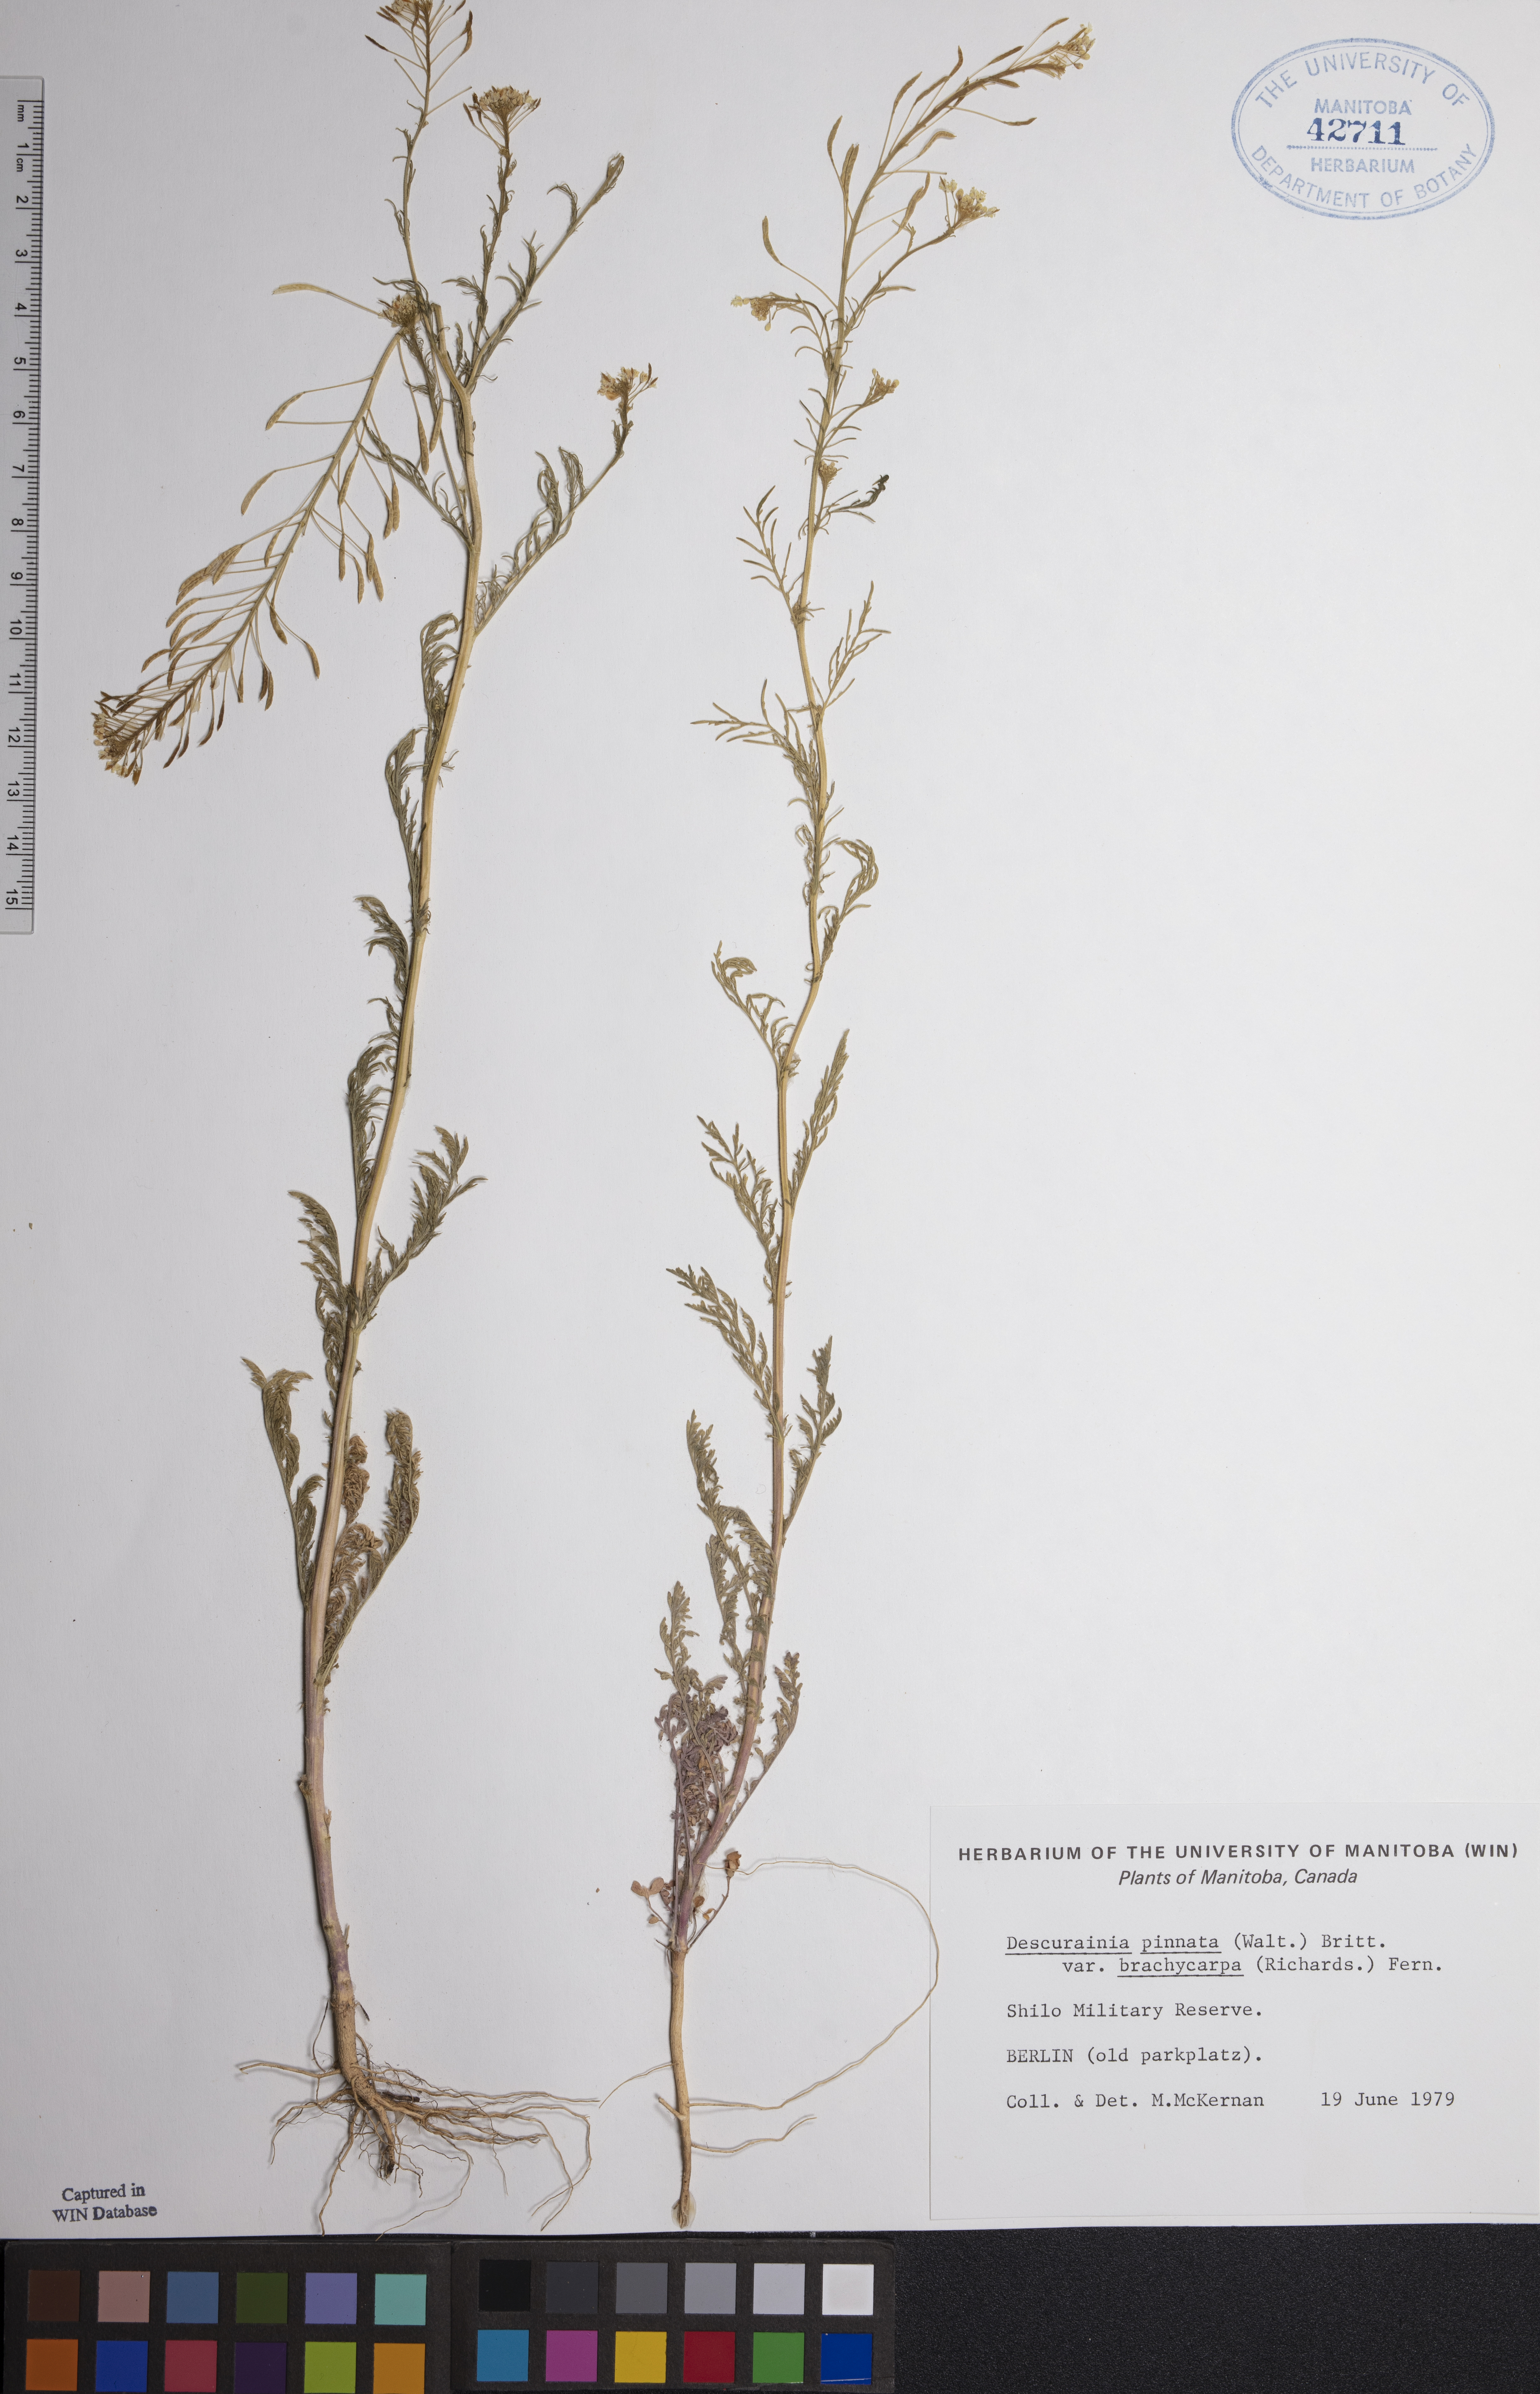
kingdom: Plantae
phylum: Tracheophyta
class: Magnoliopsida
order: Brassicales
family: Brassicaceae
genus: Descurainia
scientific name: Descurainia pinnata
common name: Western tansy mustard
